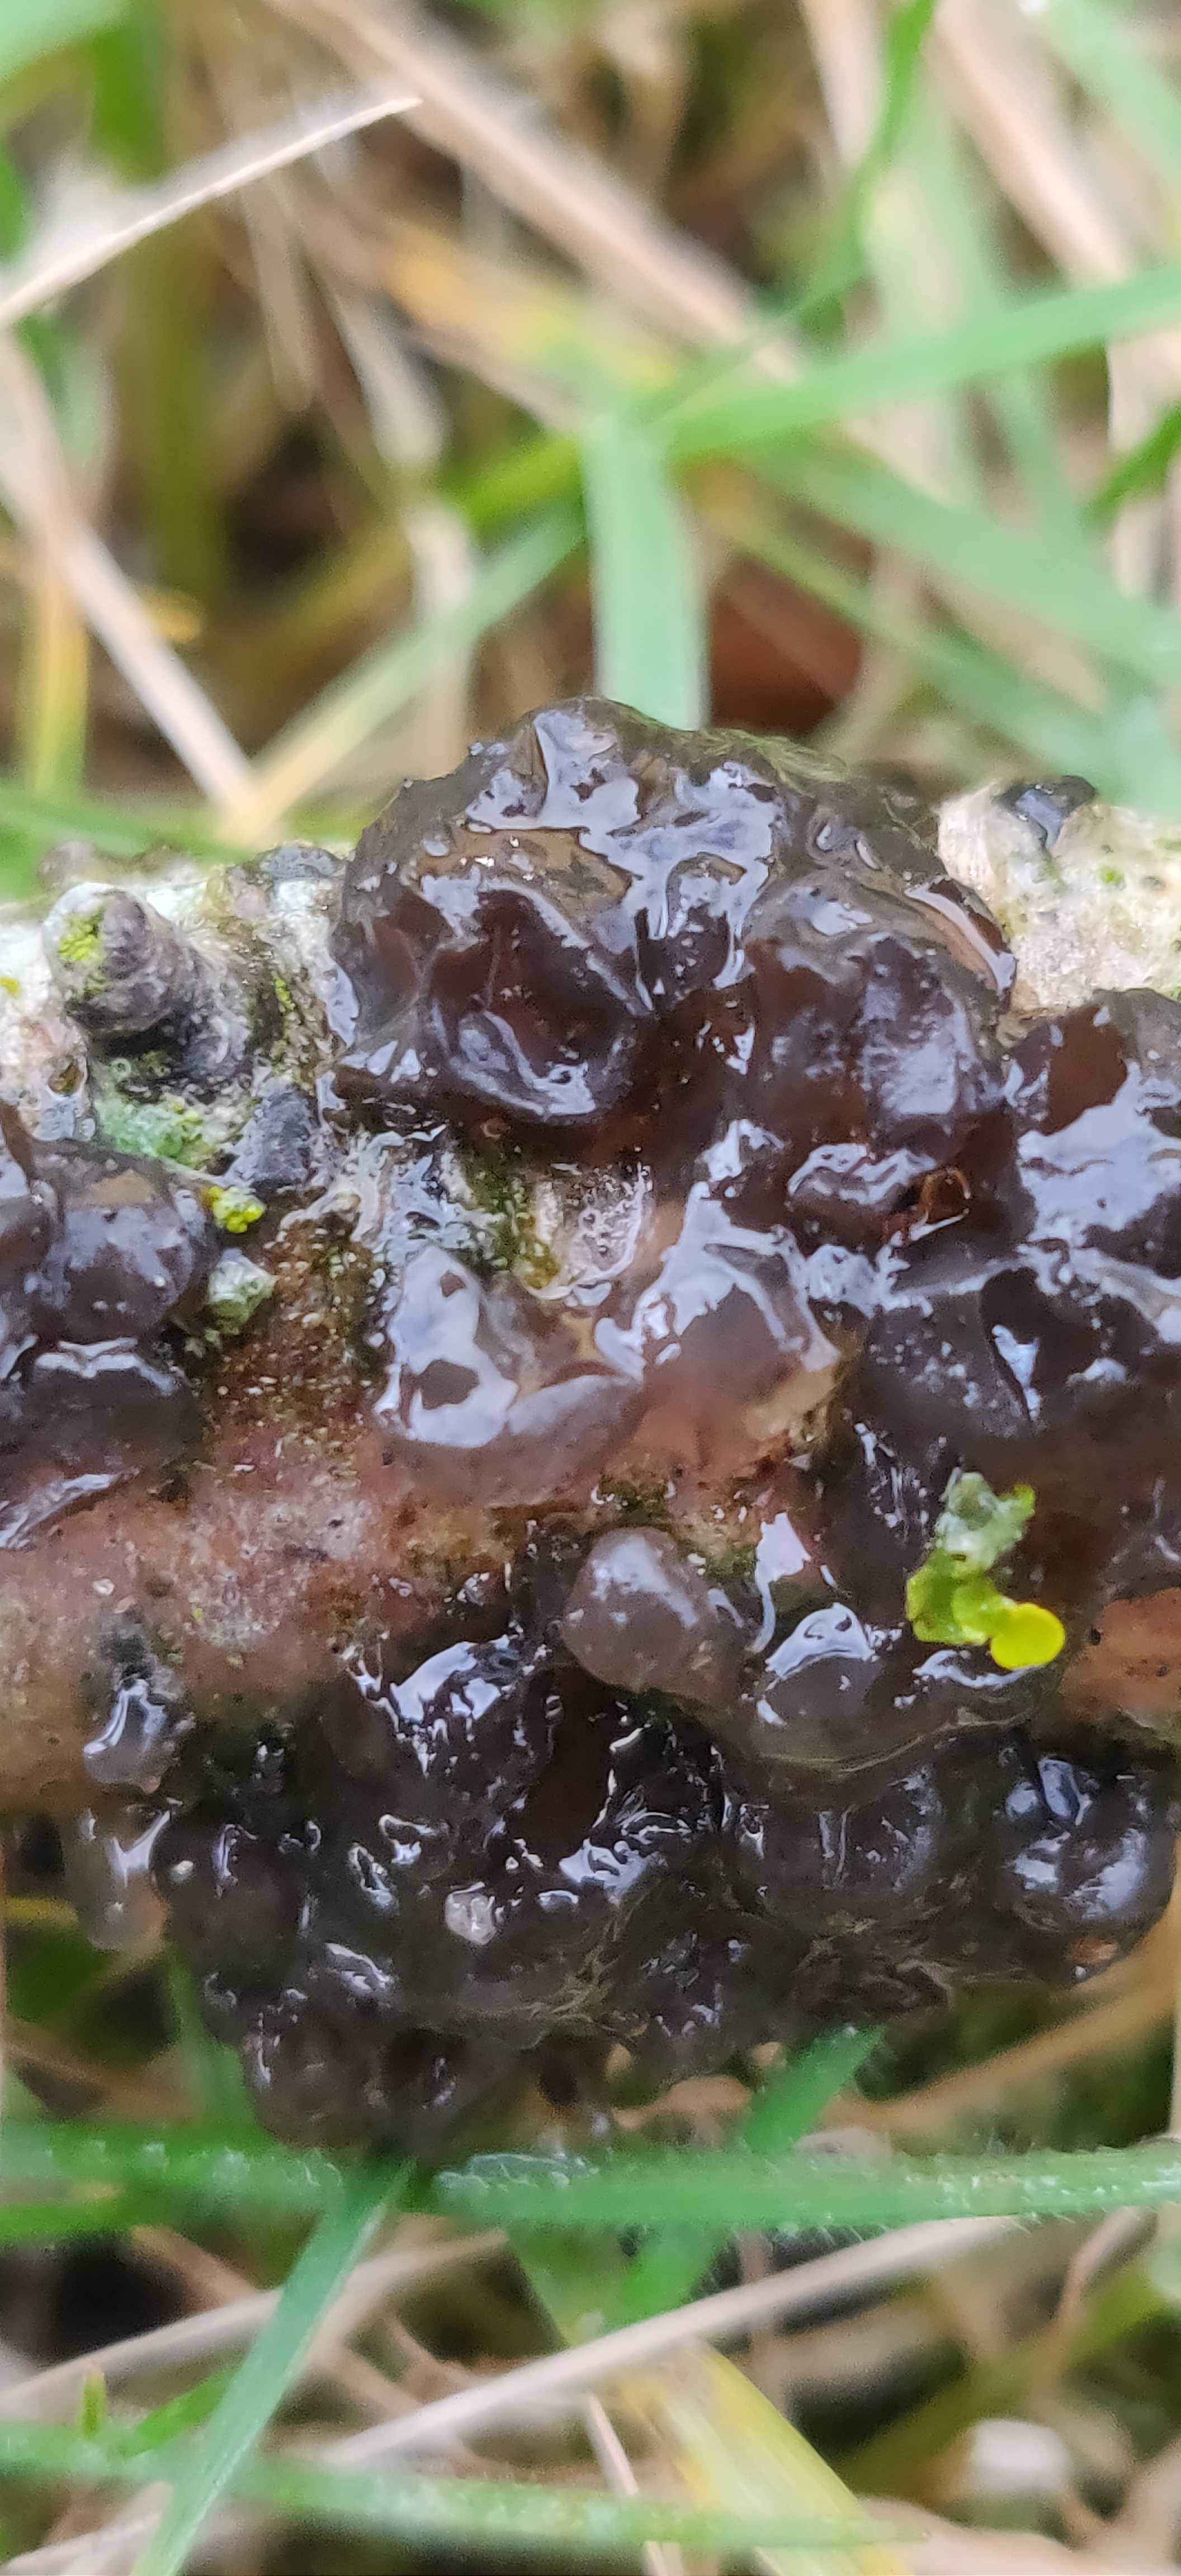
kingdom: Fungi
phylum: Basidiomycota
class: Tremellomycetes
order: Tremellales
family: Exidiaceae
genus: Exidia
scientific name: Exidia
